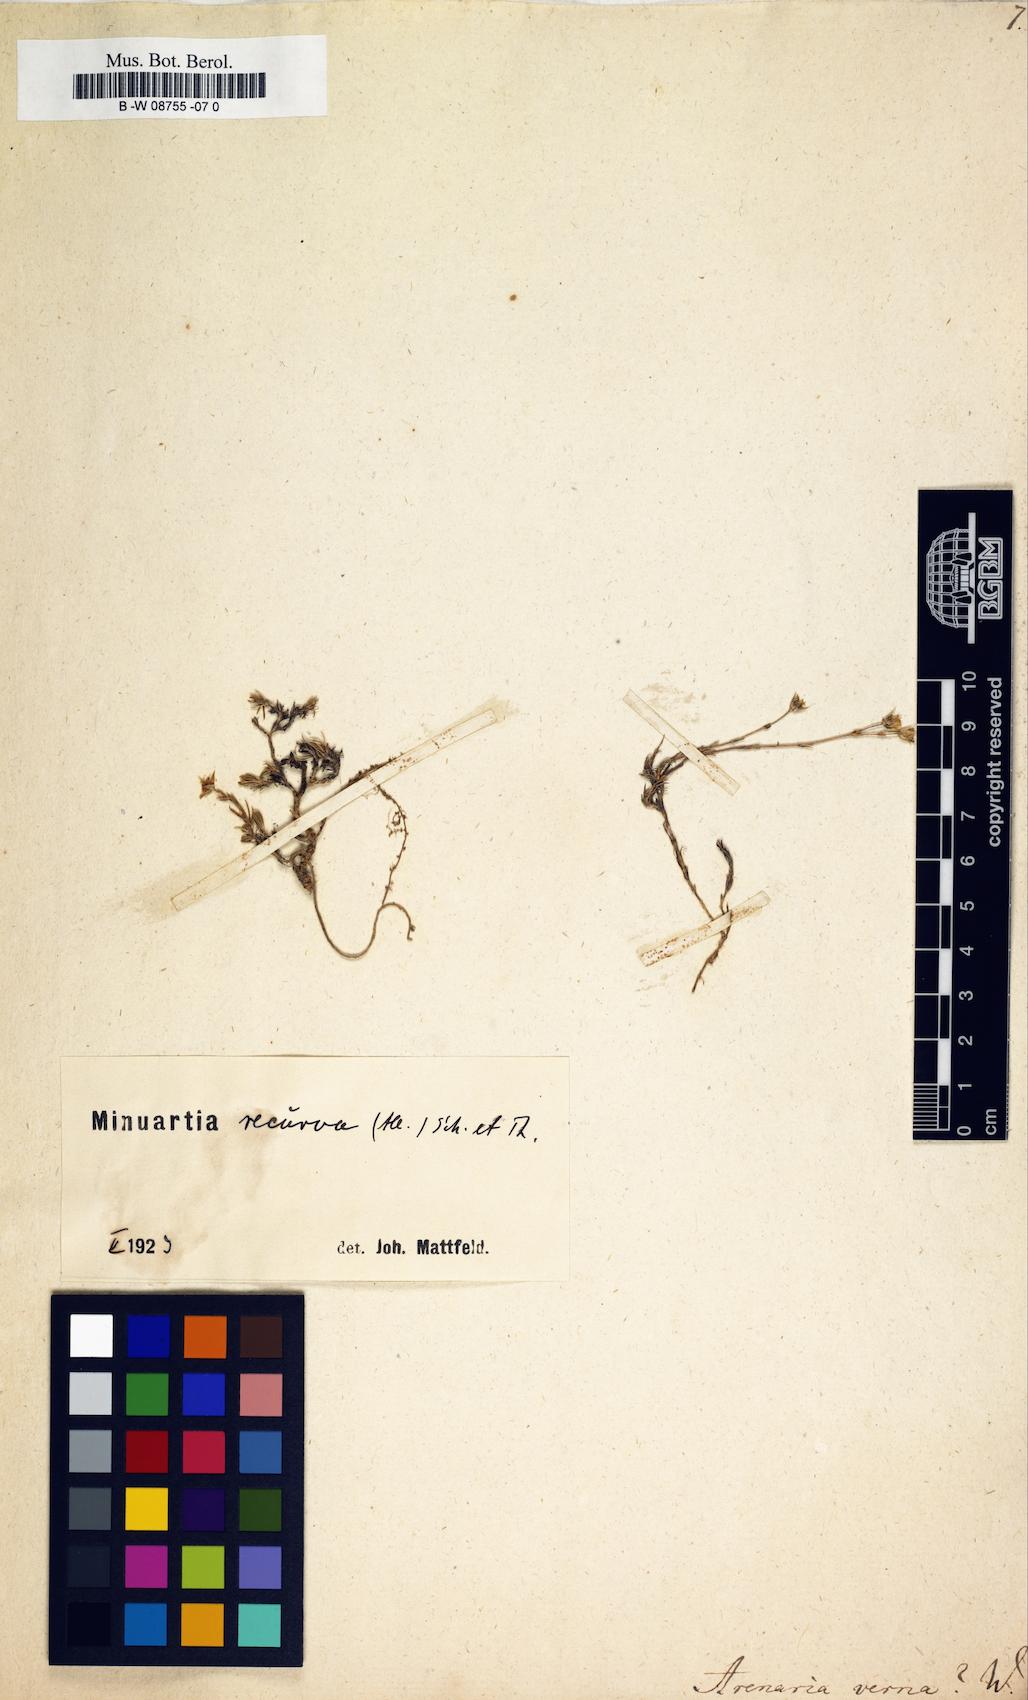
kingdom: Plantae
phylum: Tracheophyta
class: Magnoliopsida
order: Caryophyllales
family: Caryophyllaceae
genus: Sabulina
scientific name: Sabulina verna
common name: Spring sandwort
